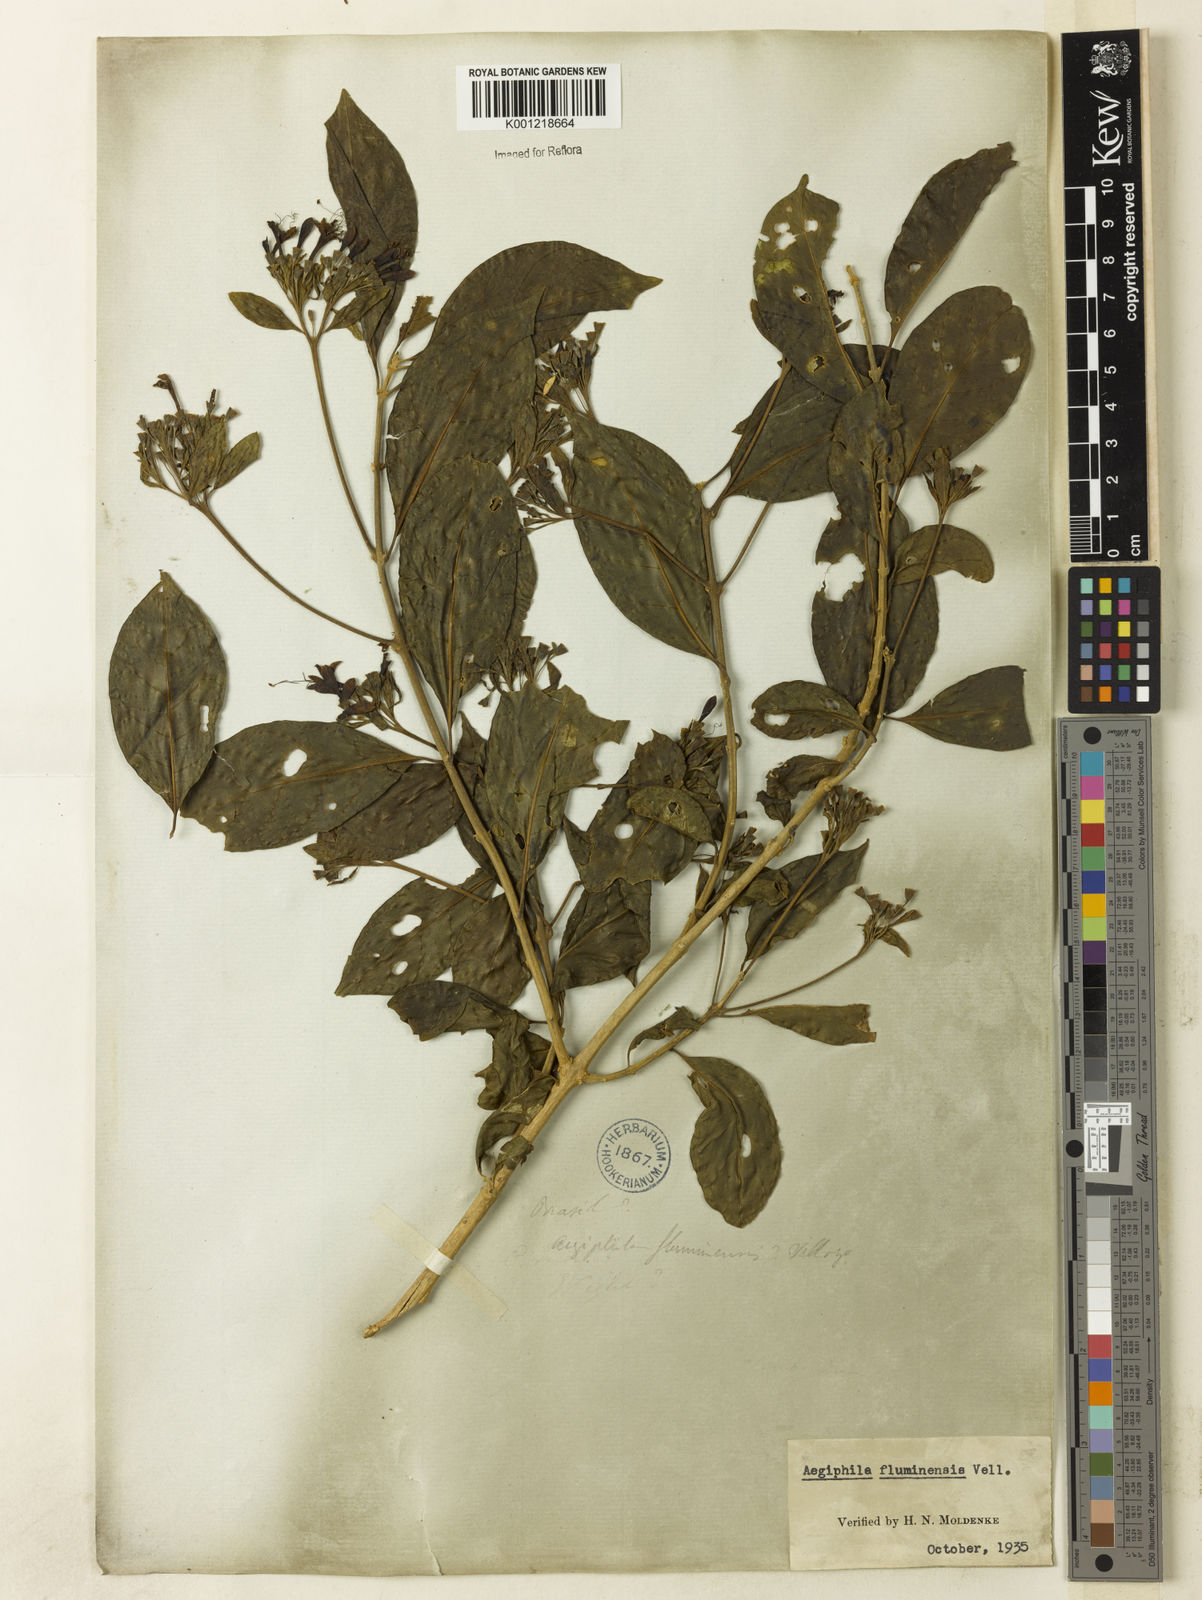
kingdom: Plantae
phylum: Tracheophyta
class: Magnoliopsida
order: Lamiales
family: Lamiaceae
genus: Aegiphila
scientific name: Aegiphila fluminensis
